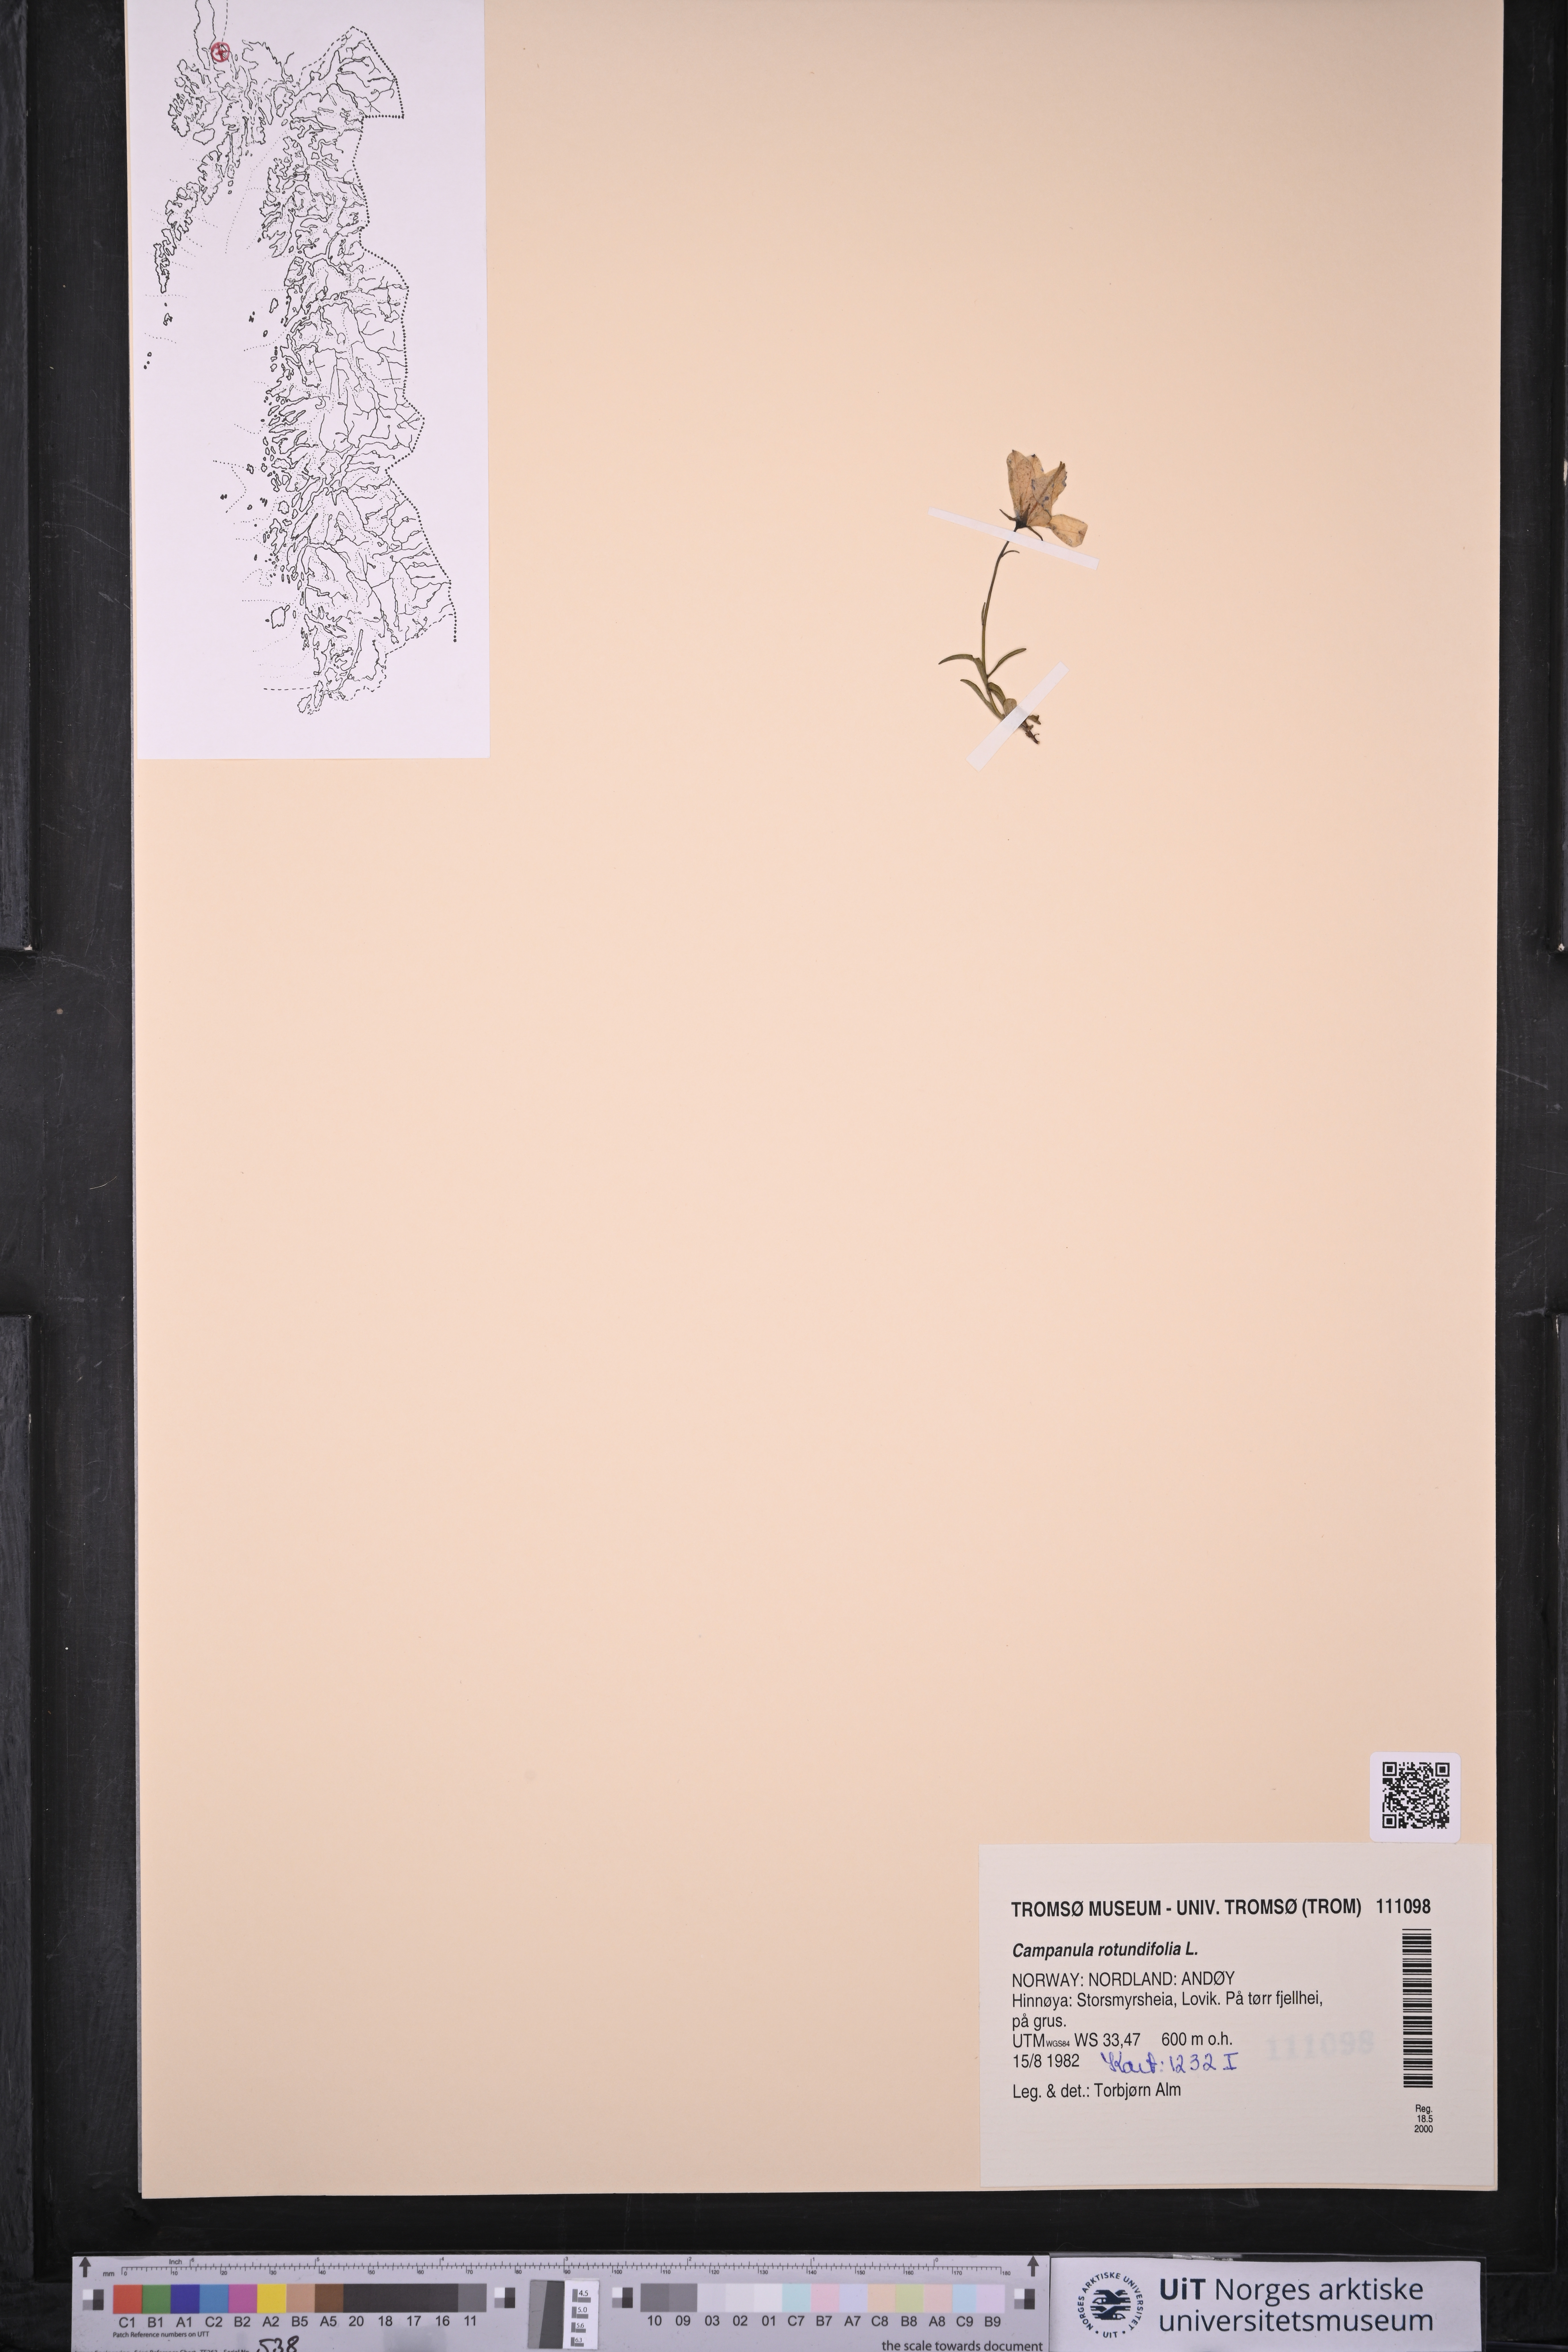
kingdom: Plantae
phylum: Tracheophyta
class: Magnoliopsida
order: Asterales
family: Campanulaceae
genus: Campanula
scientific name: Campanula rotundifolia
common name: Harebell
